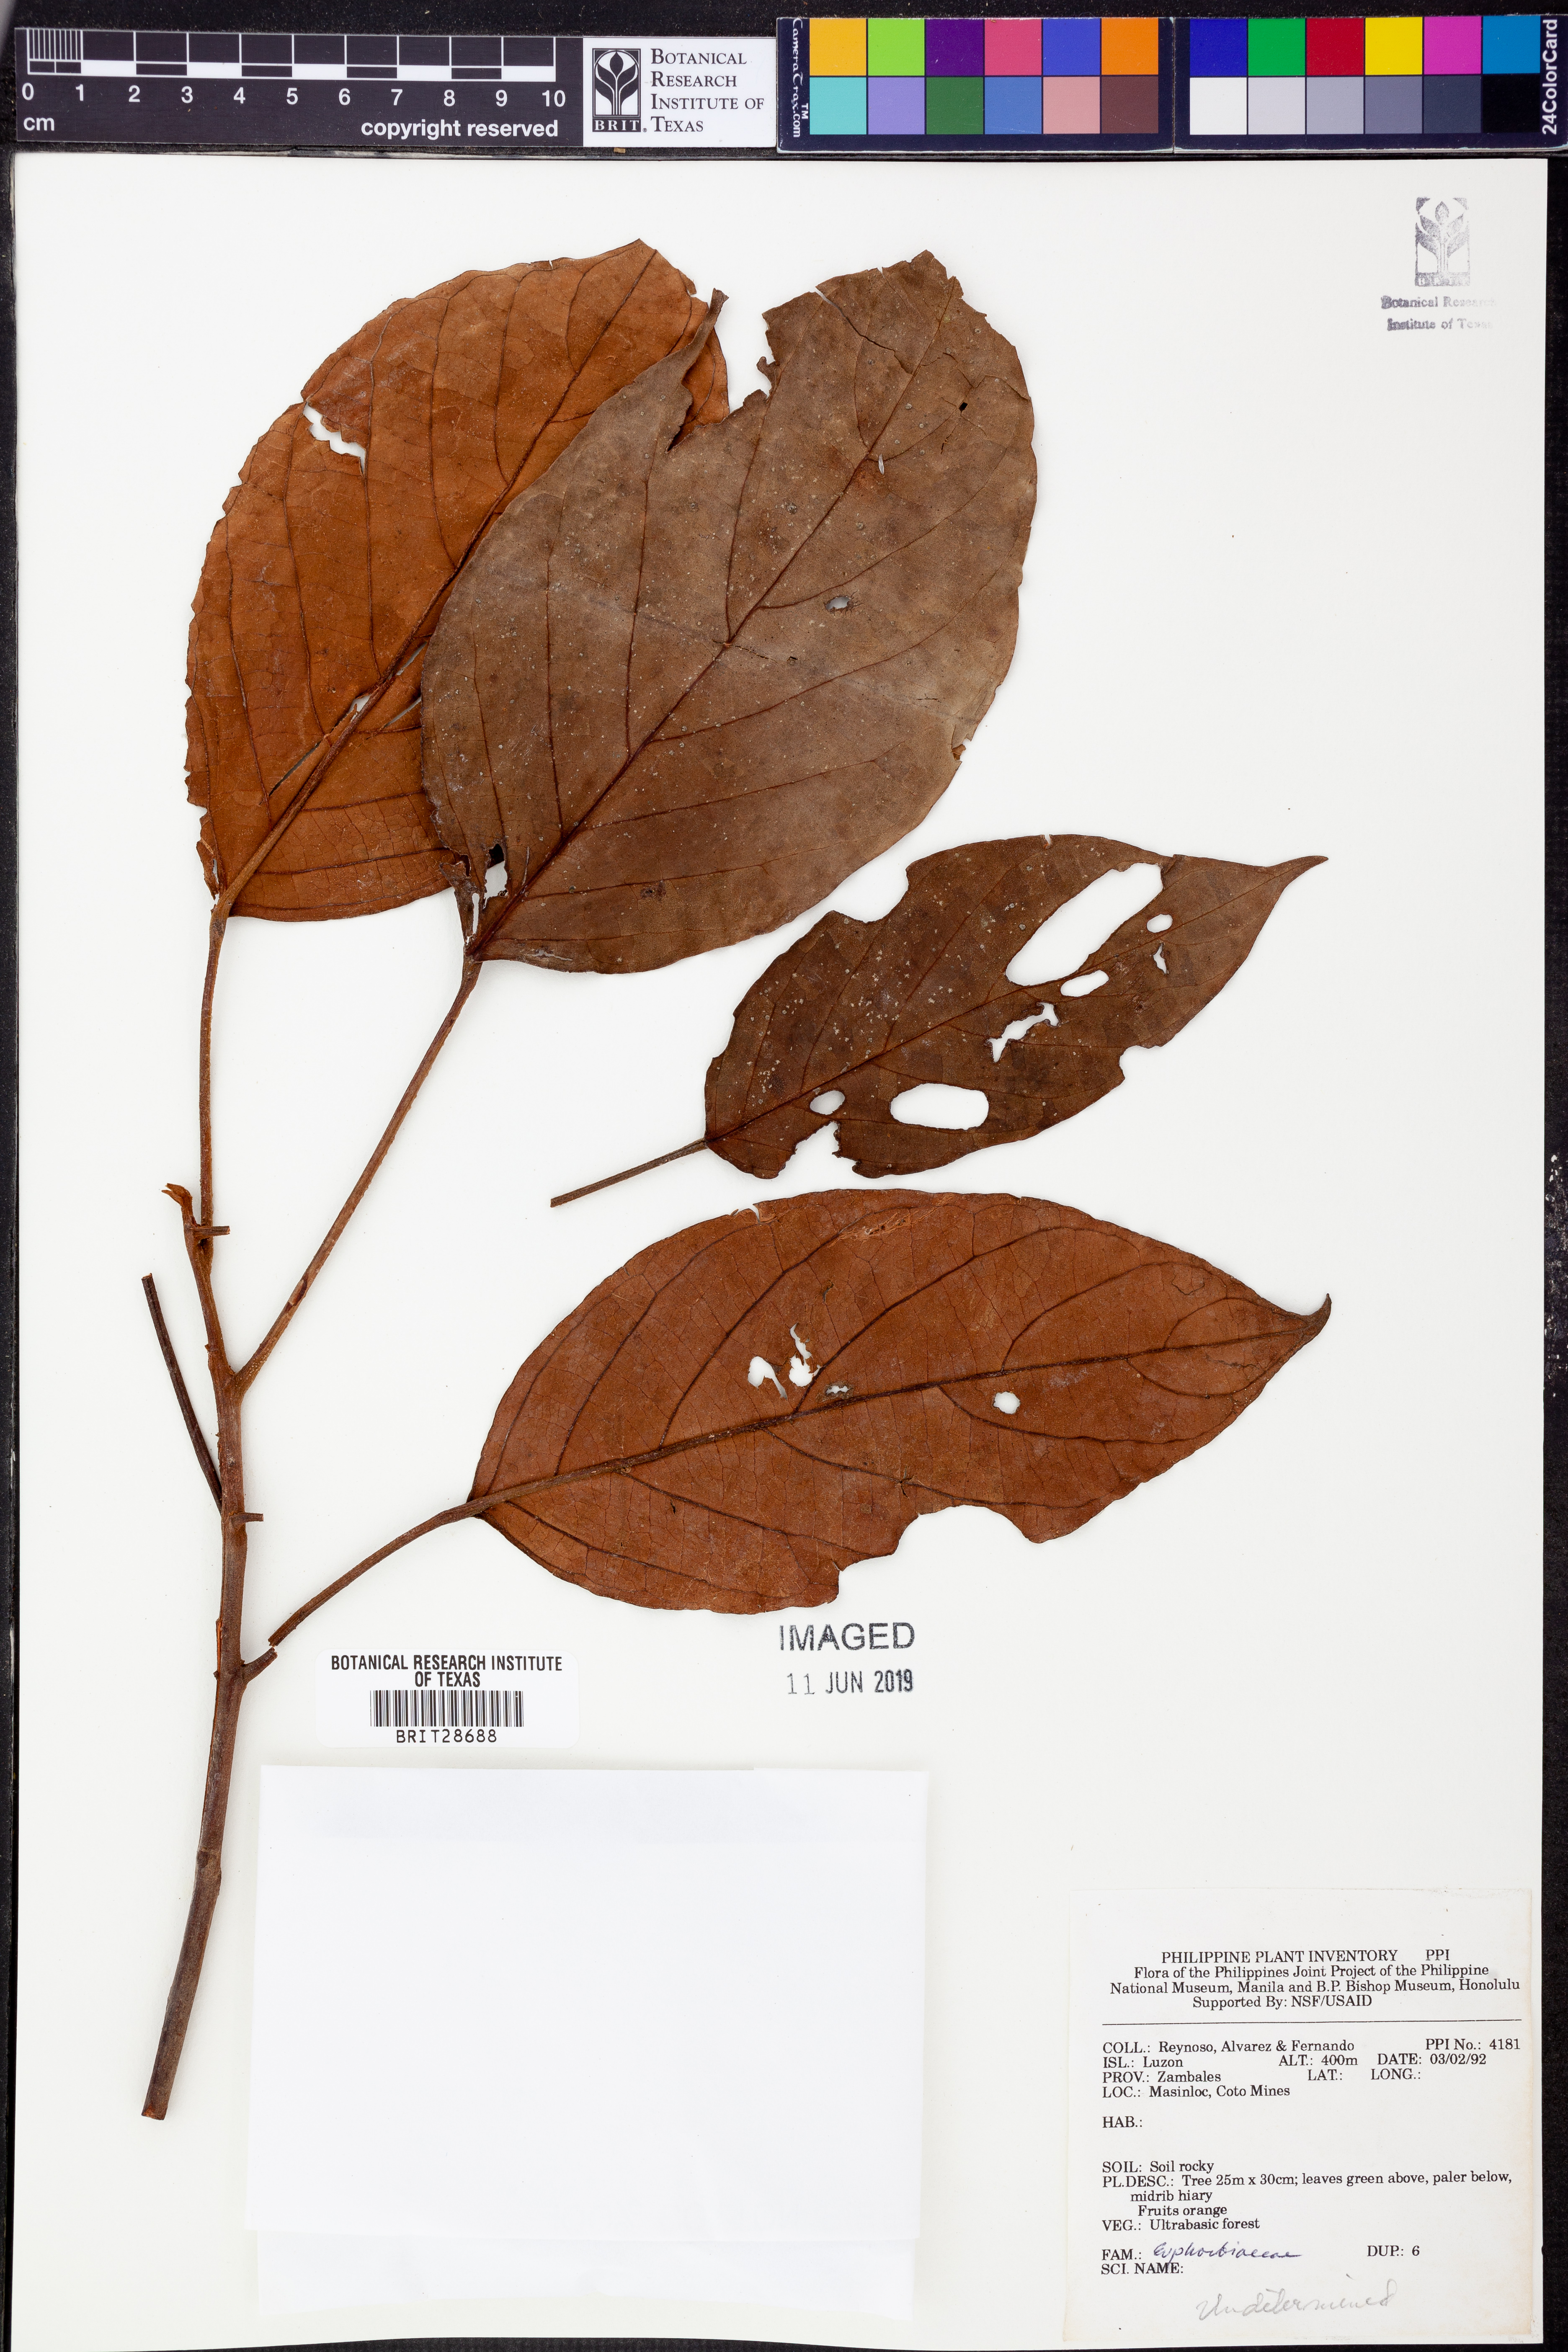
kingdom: Plantae
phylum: Tracheophyta
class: Magnoliopsida
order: Malpighiales
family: Euphorbiaceae
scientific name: Euphorbiaceae
